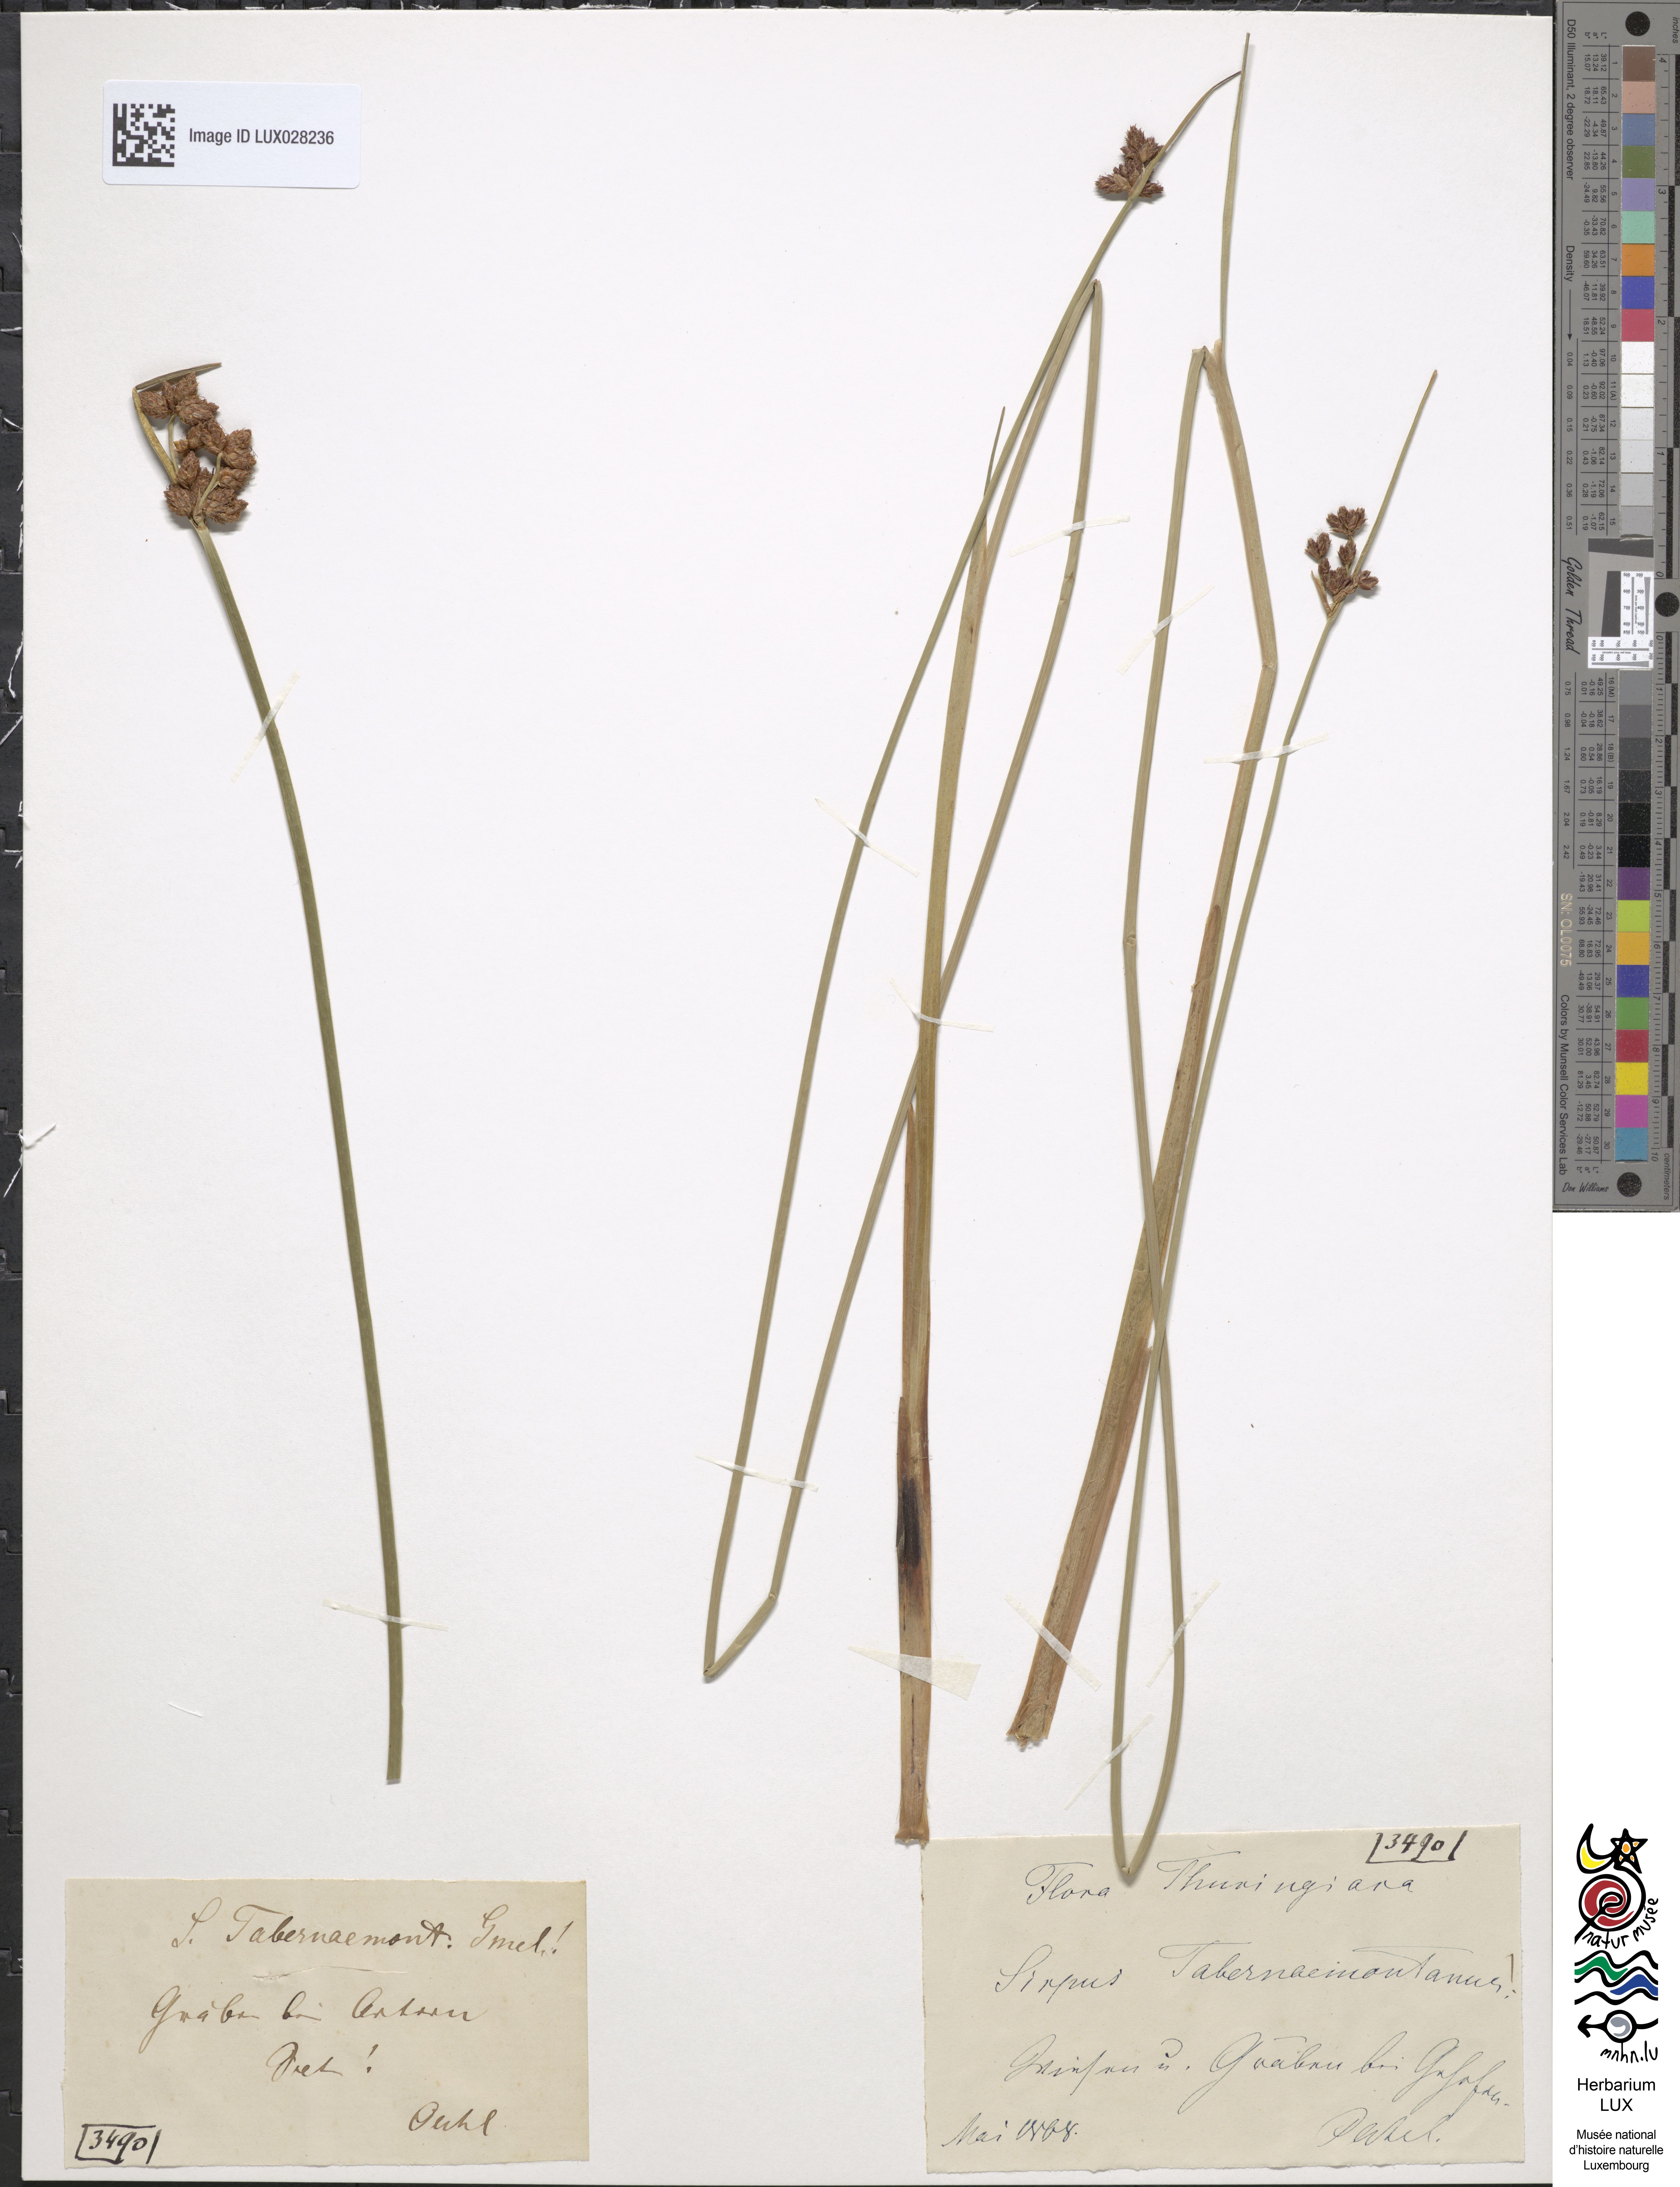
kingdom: Plantae
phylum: Tracheophyta
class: Liliopsida
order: Poales
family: Cyperaceae
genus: Schoenoplectus
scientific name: Schoenoplectus tabernaemontani
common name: Grey club-rush
